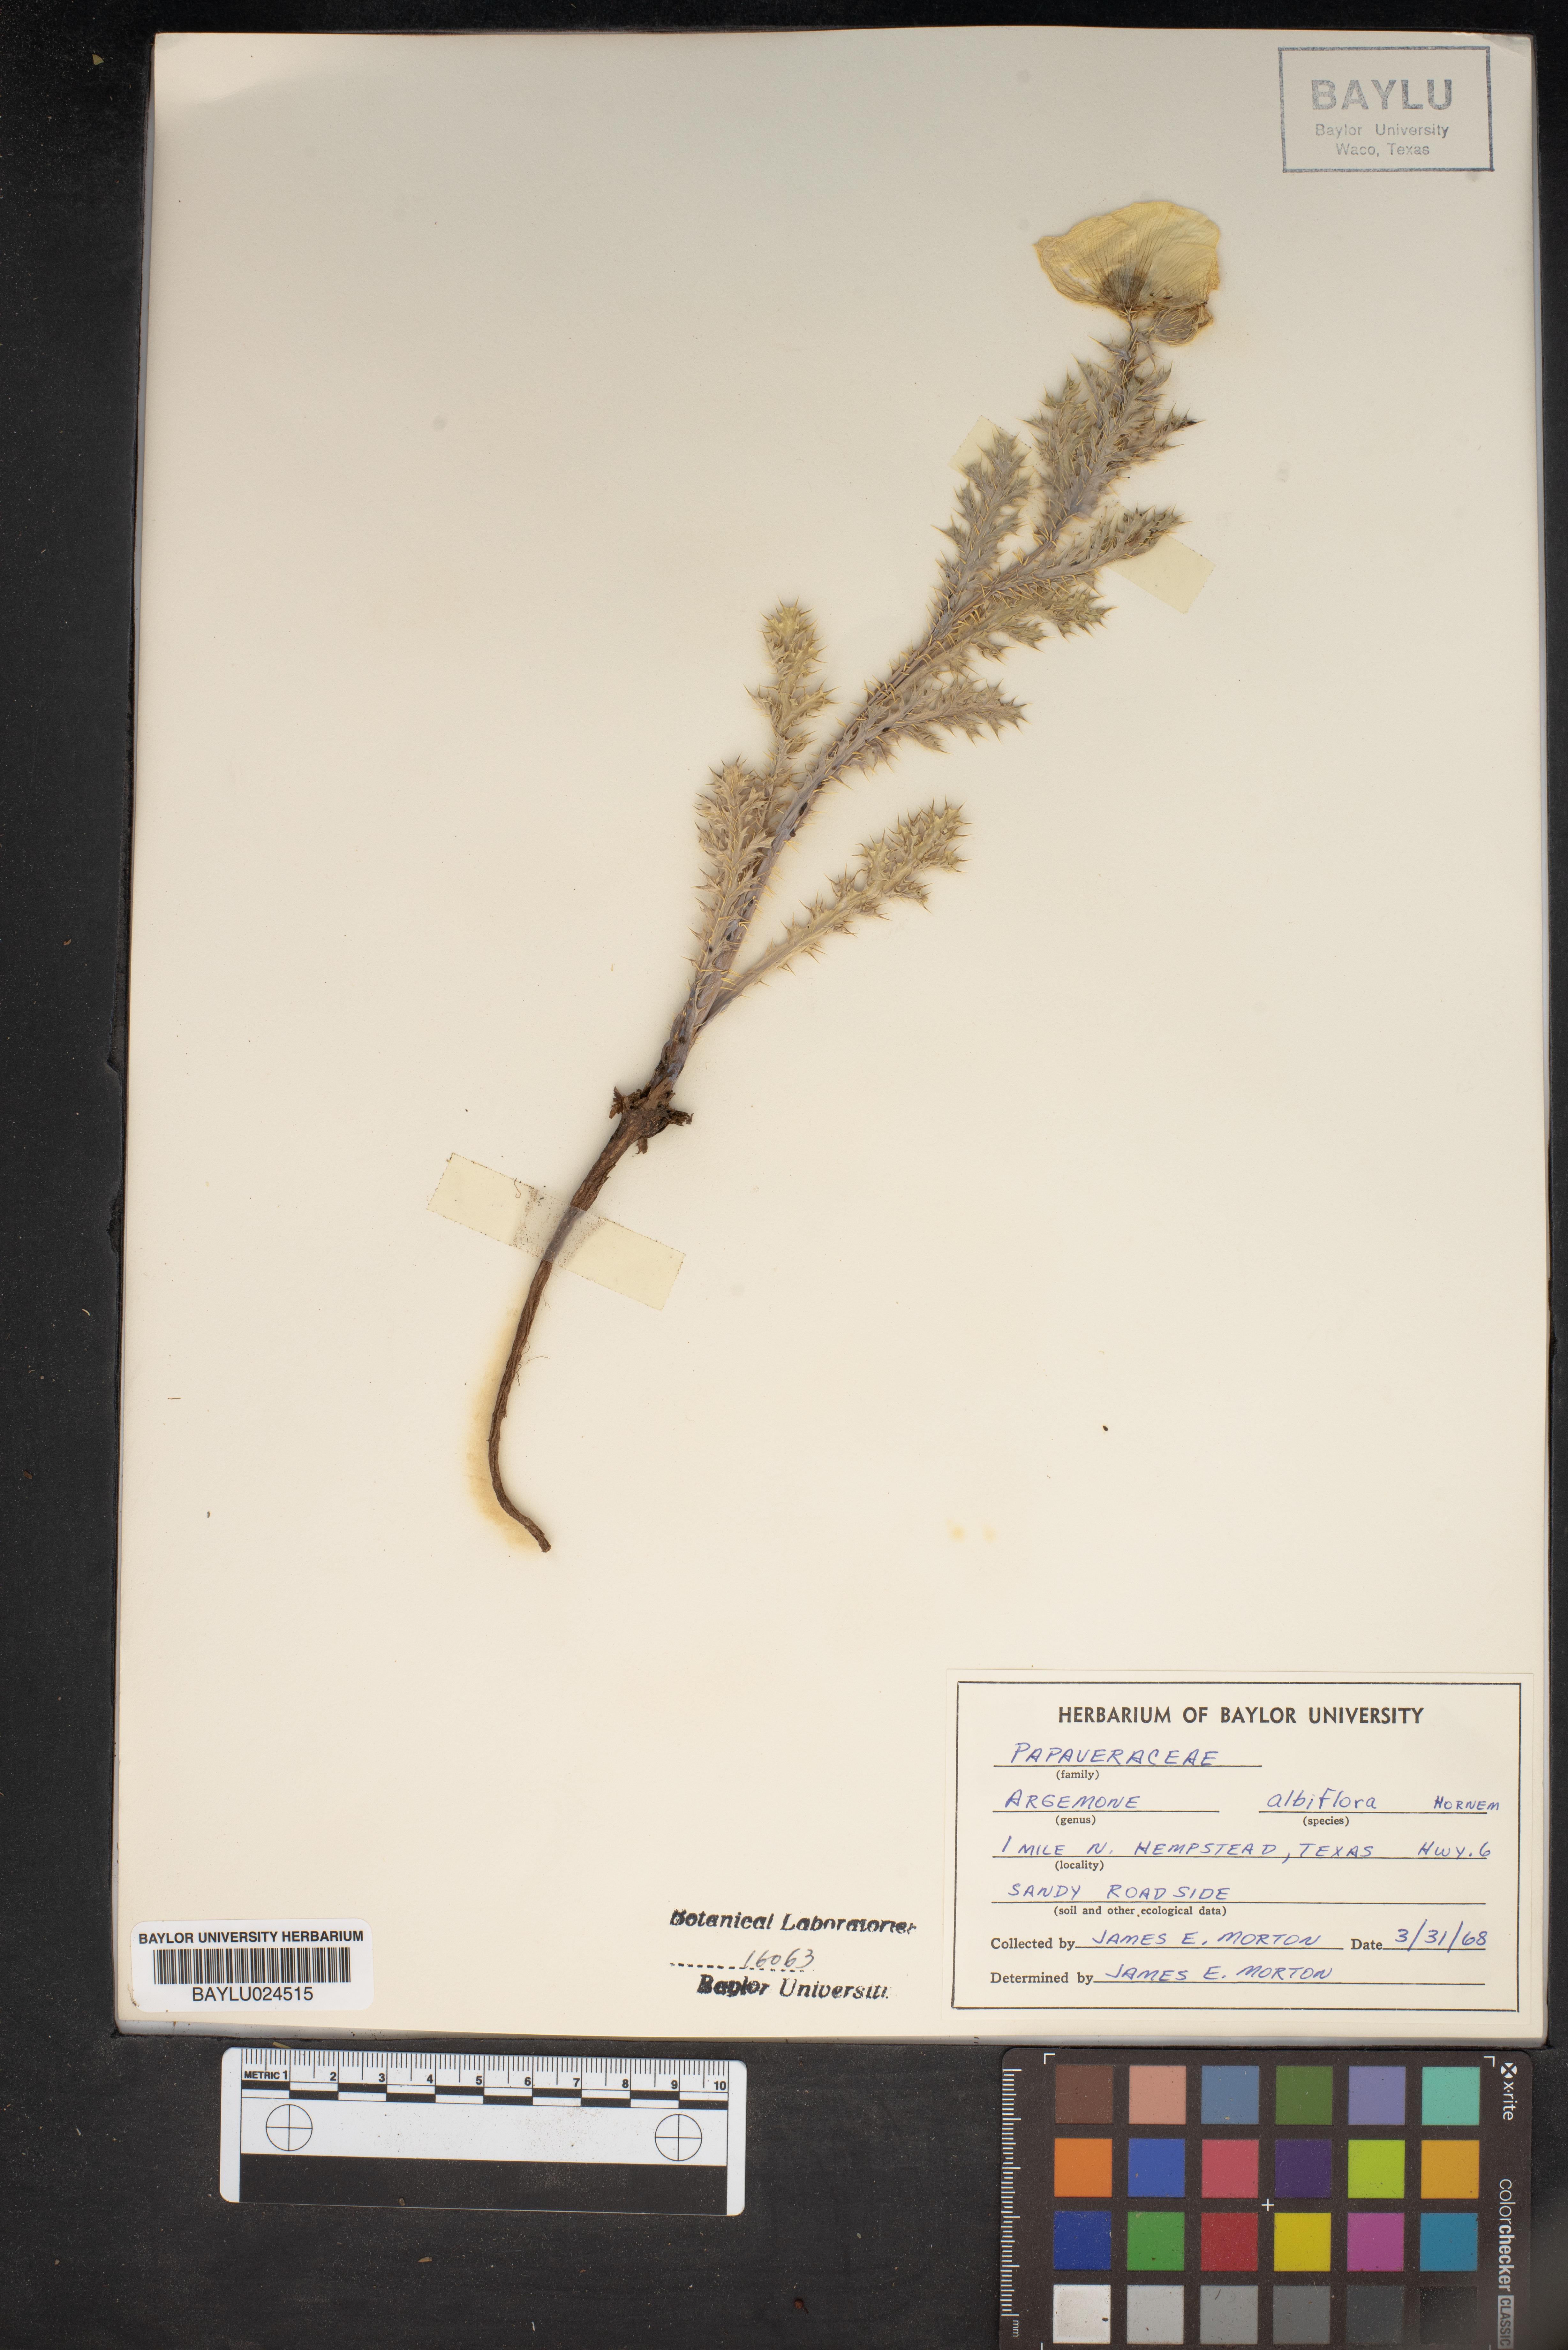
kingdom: Plantae
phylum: Tracheophyta
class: Magnoliopsida
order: Ranunculales
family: Papaveraceae
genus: Argemone
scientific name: Argemone albiflora
